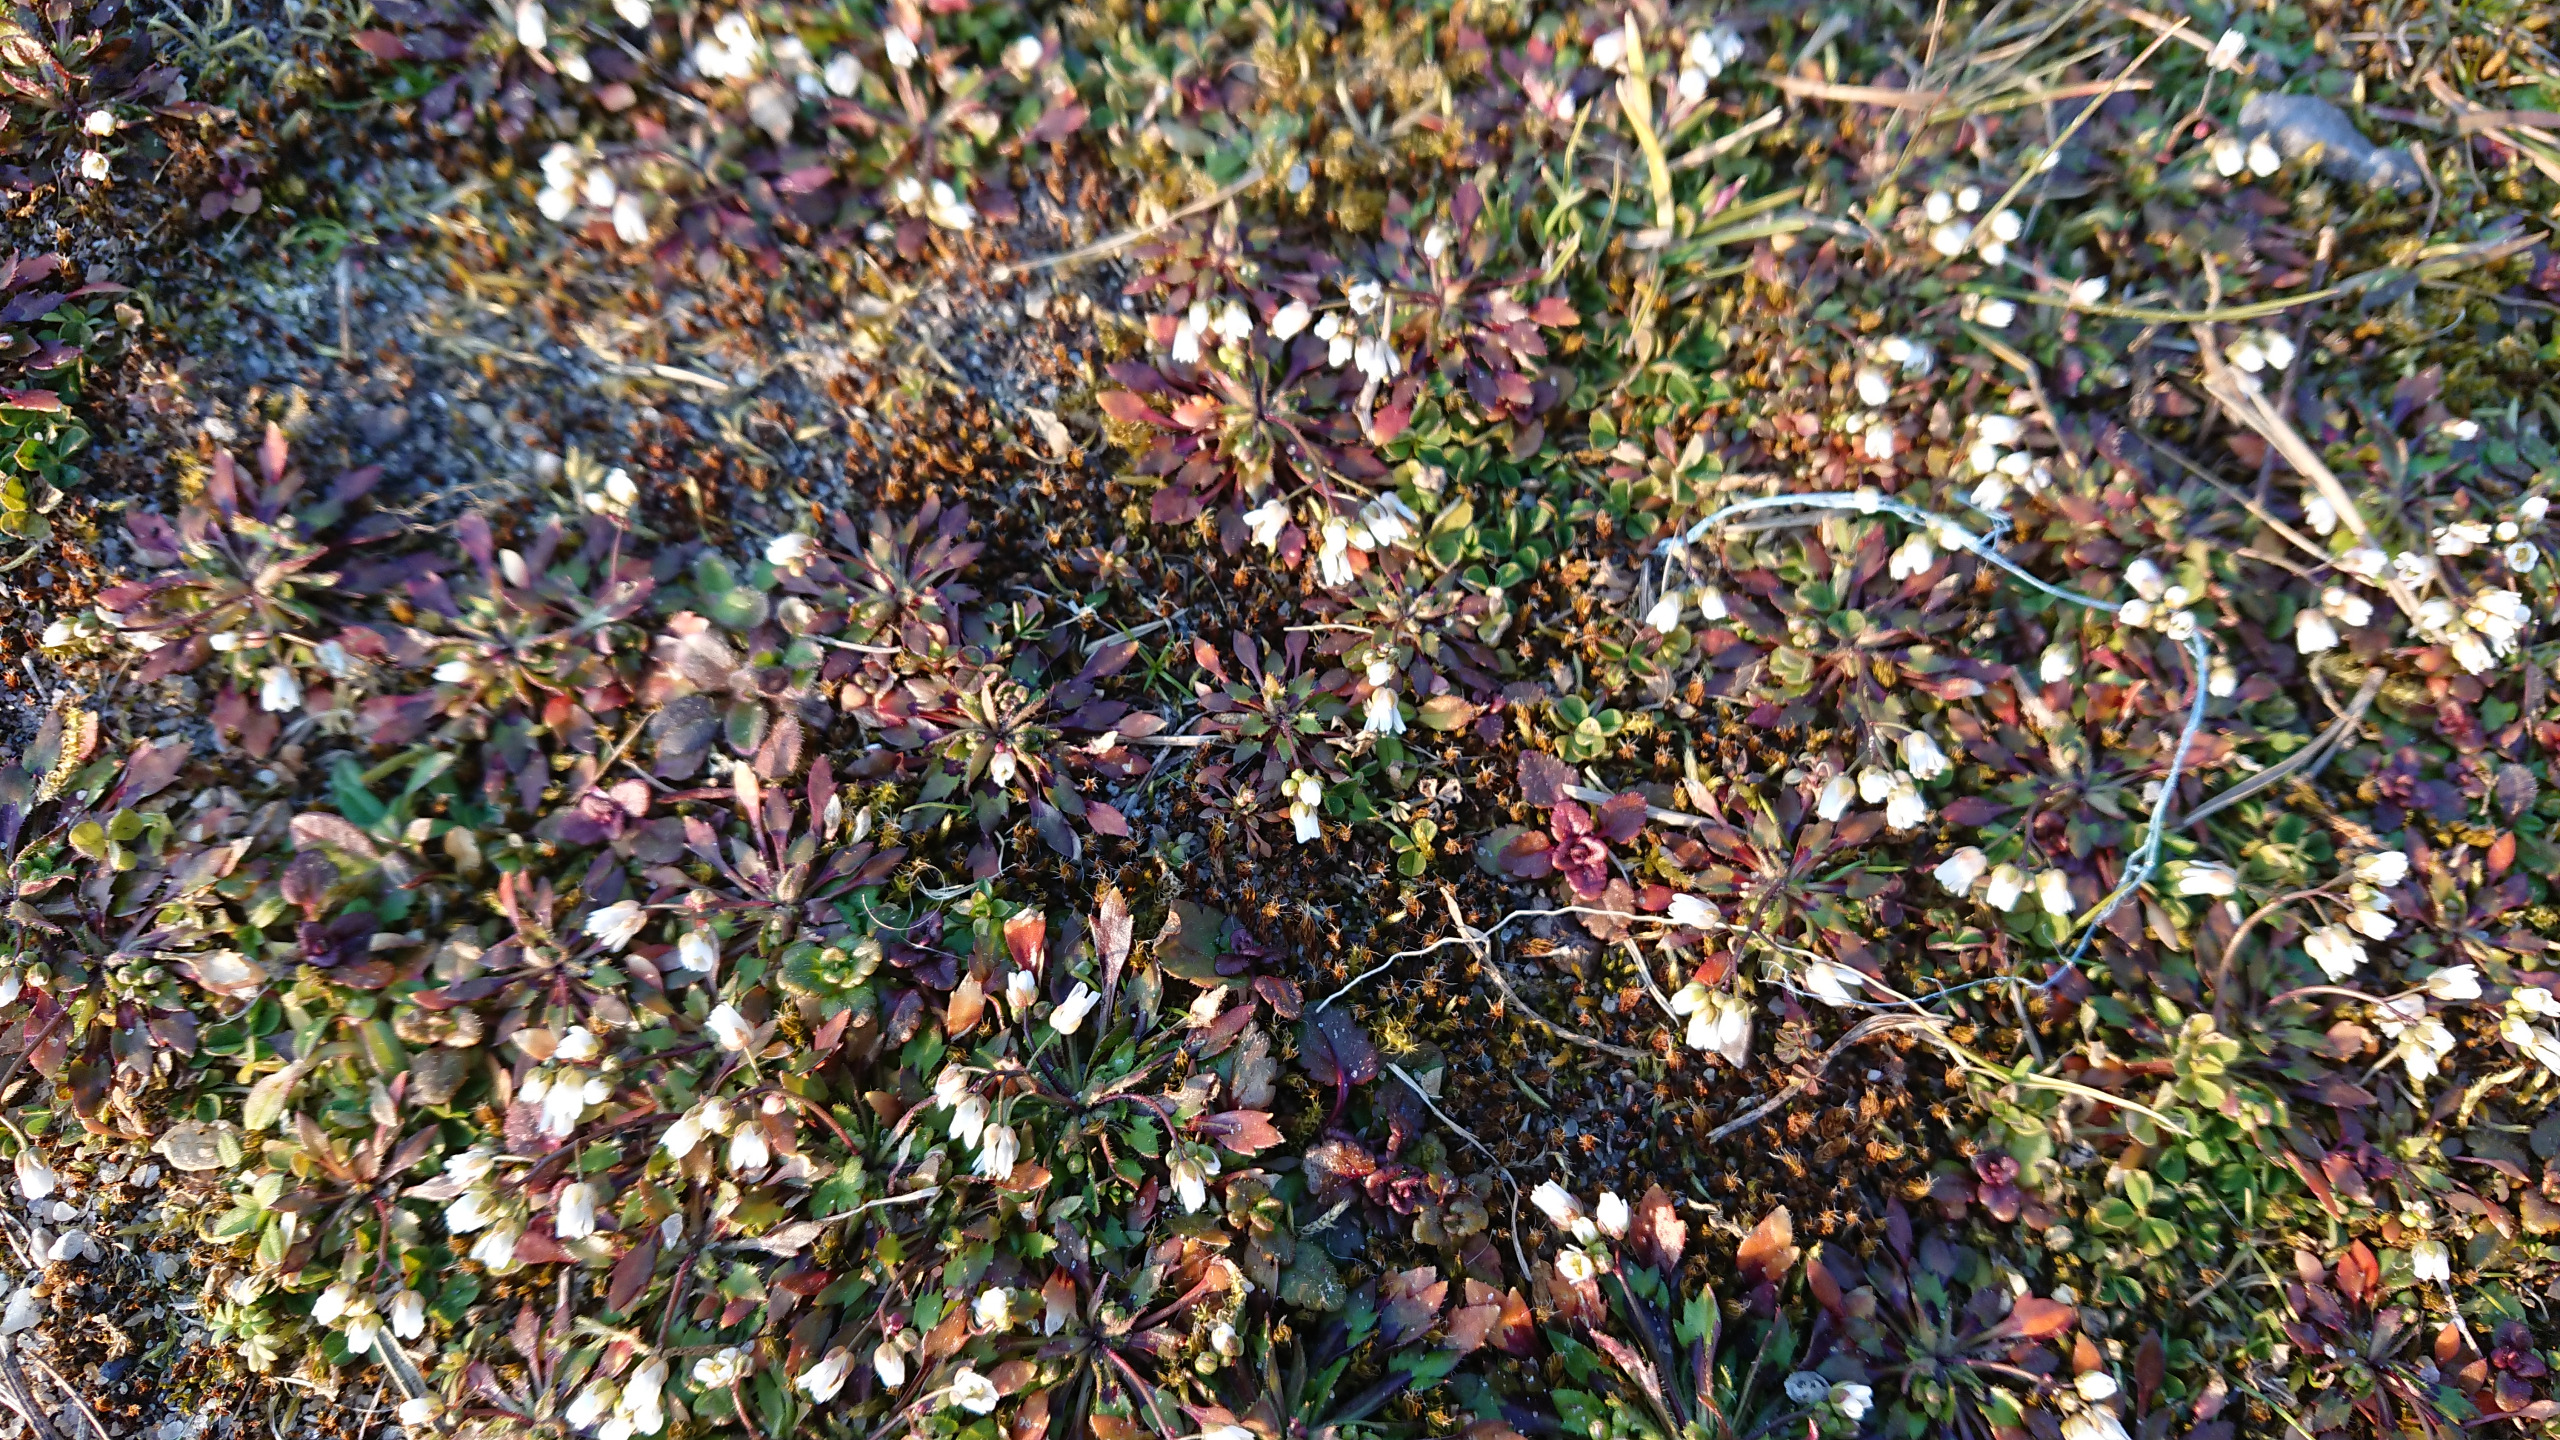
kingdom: Plantae
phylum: Tracheophyta
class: Magnoliopsida
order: Brassicales
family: Brassicaceae
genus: Draba
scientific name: Draba verna
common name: Vår-gæslingeblomst
